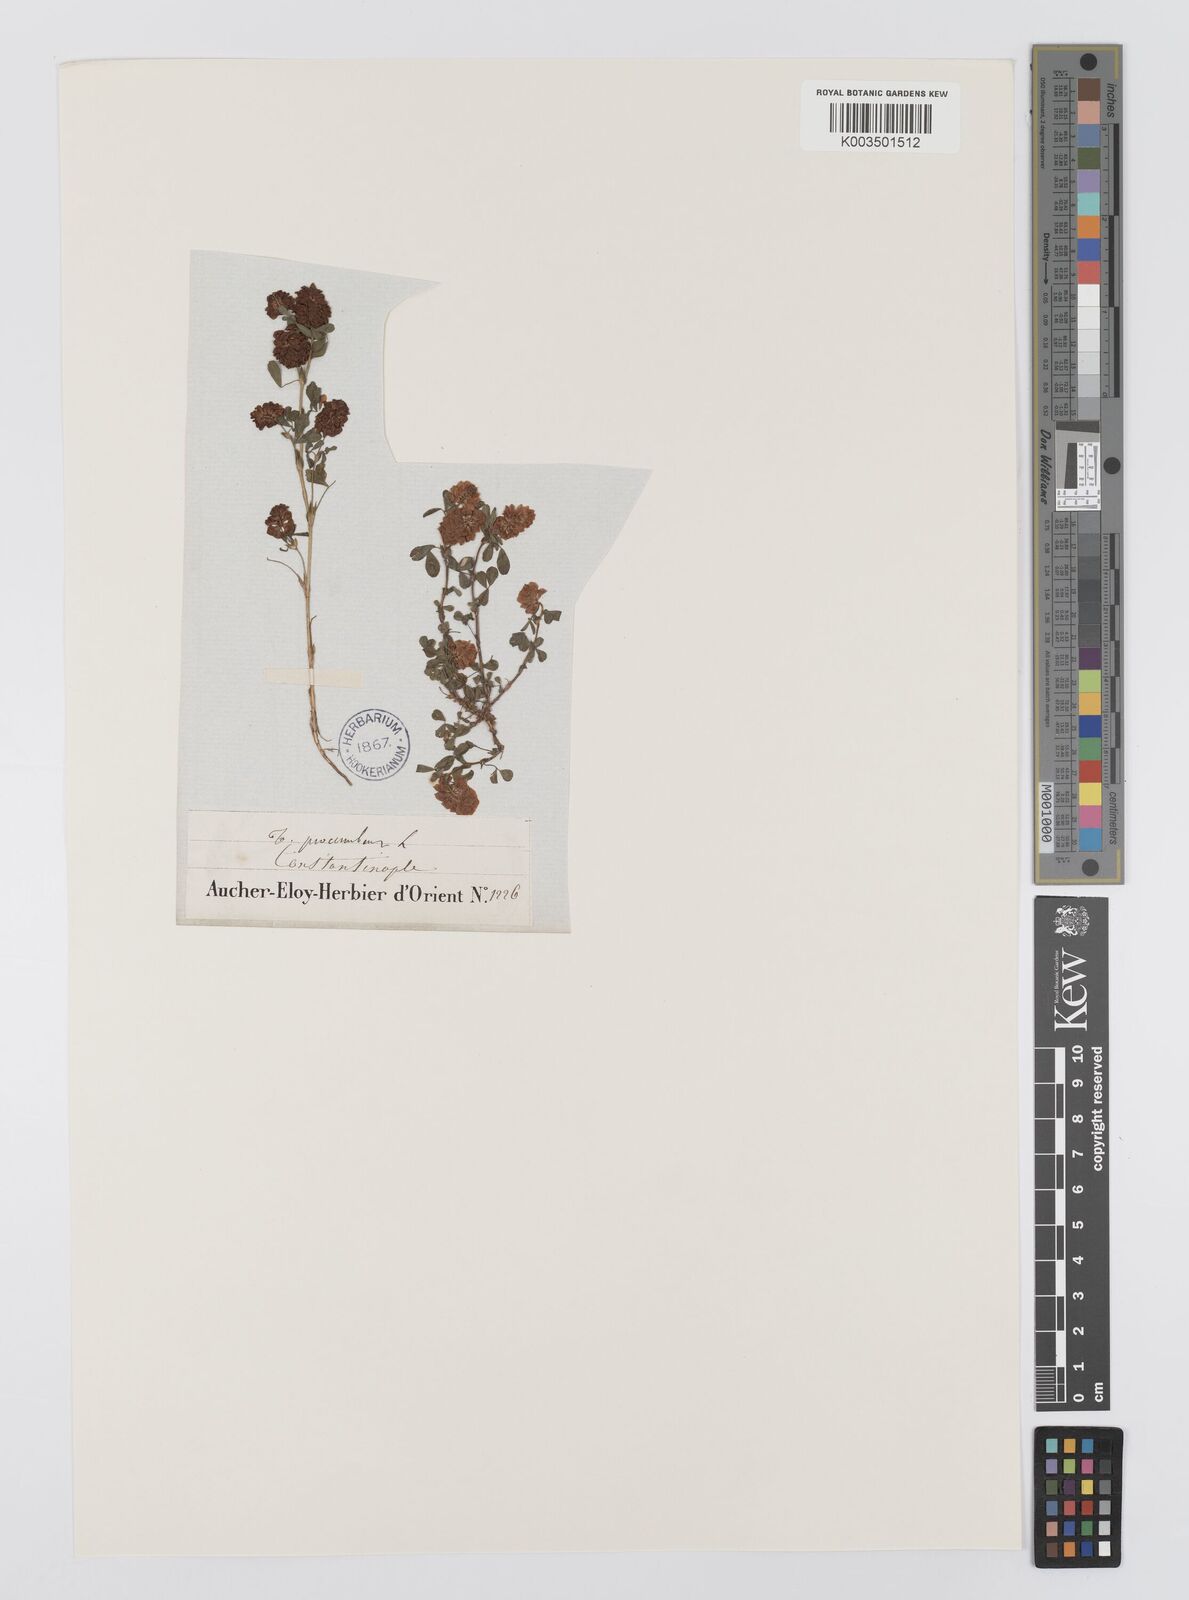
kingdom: Plantae
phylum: Tracheophyta
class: Magnoliopsida
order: Fabales
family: Fabaceae
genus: Trifolium
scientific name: Trifolium campestre
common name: Field clover
